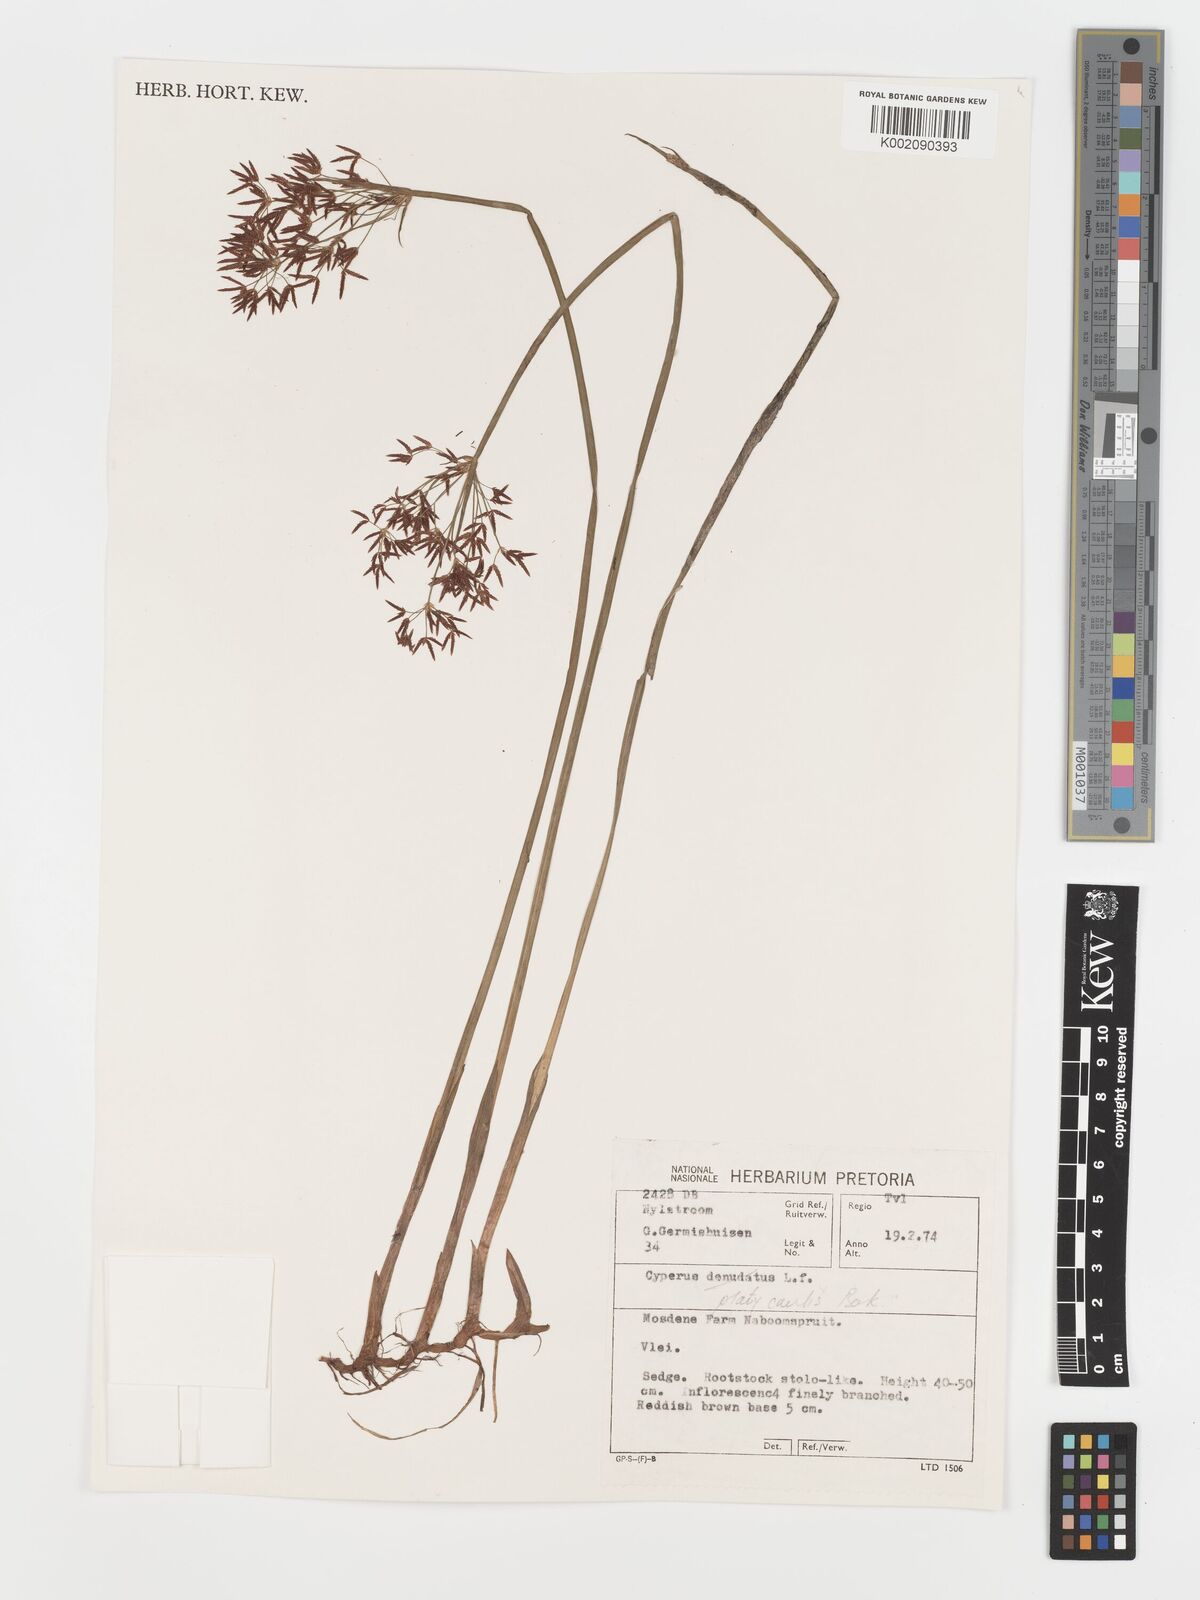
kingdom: Plantae
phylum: Tracheophyta
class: Liliopsida
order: Poales
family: Cyperaceae
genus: Cyperus
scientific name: Cyperus platycaulis
